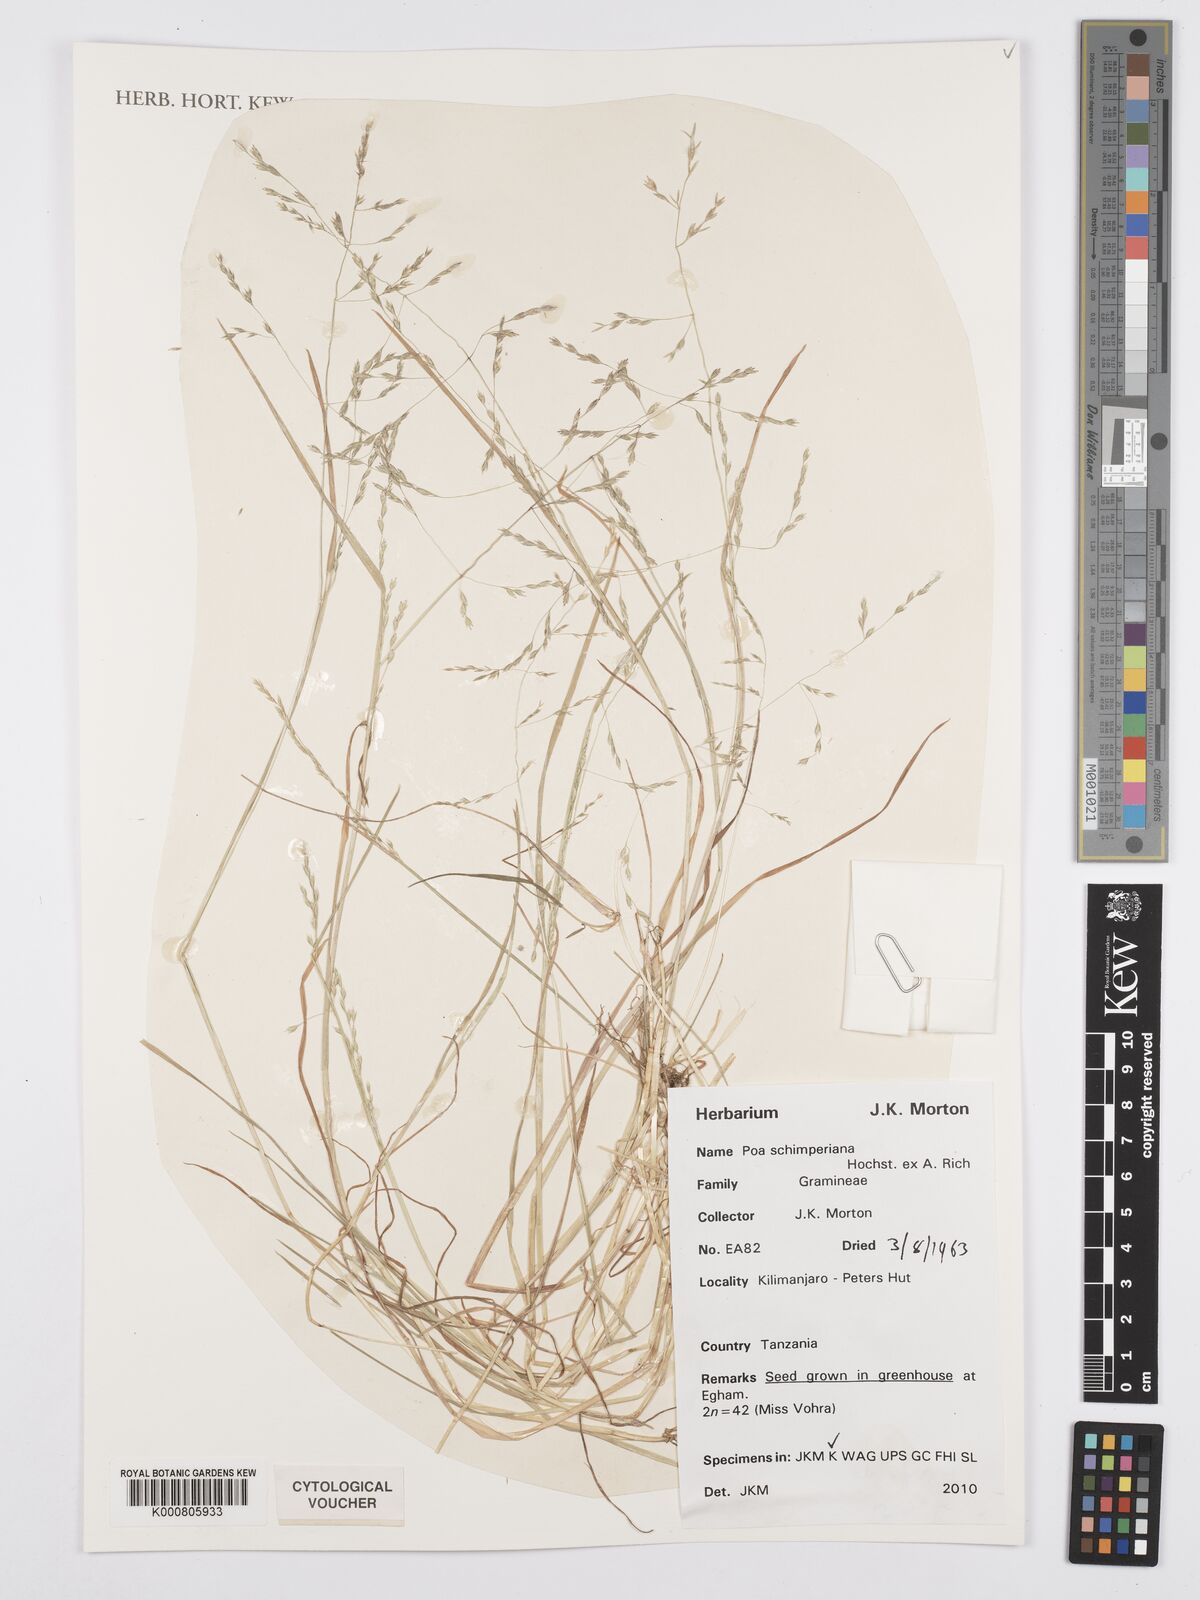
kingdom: Plantae
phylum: Tracheophyta
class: Liliopsida
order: Poales
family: Poaceae
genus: Poa
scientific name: Poa schimperiana
